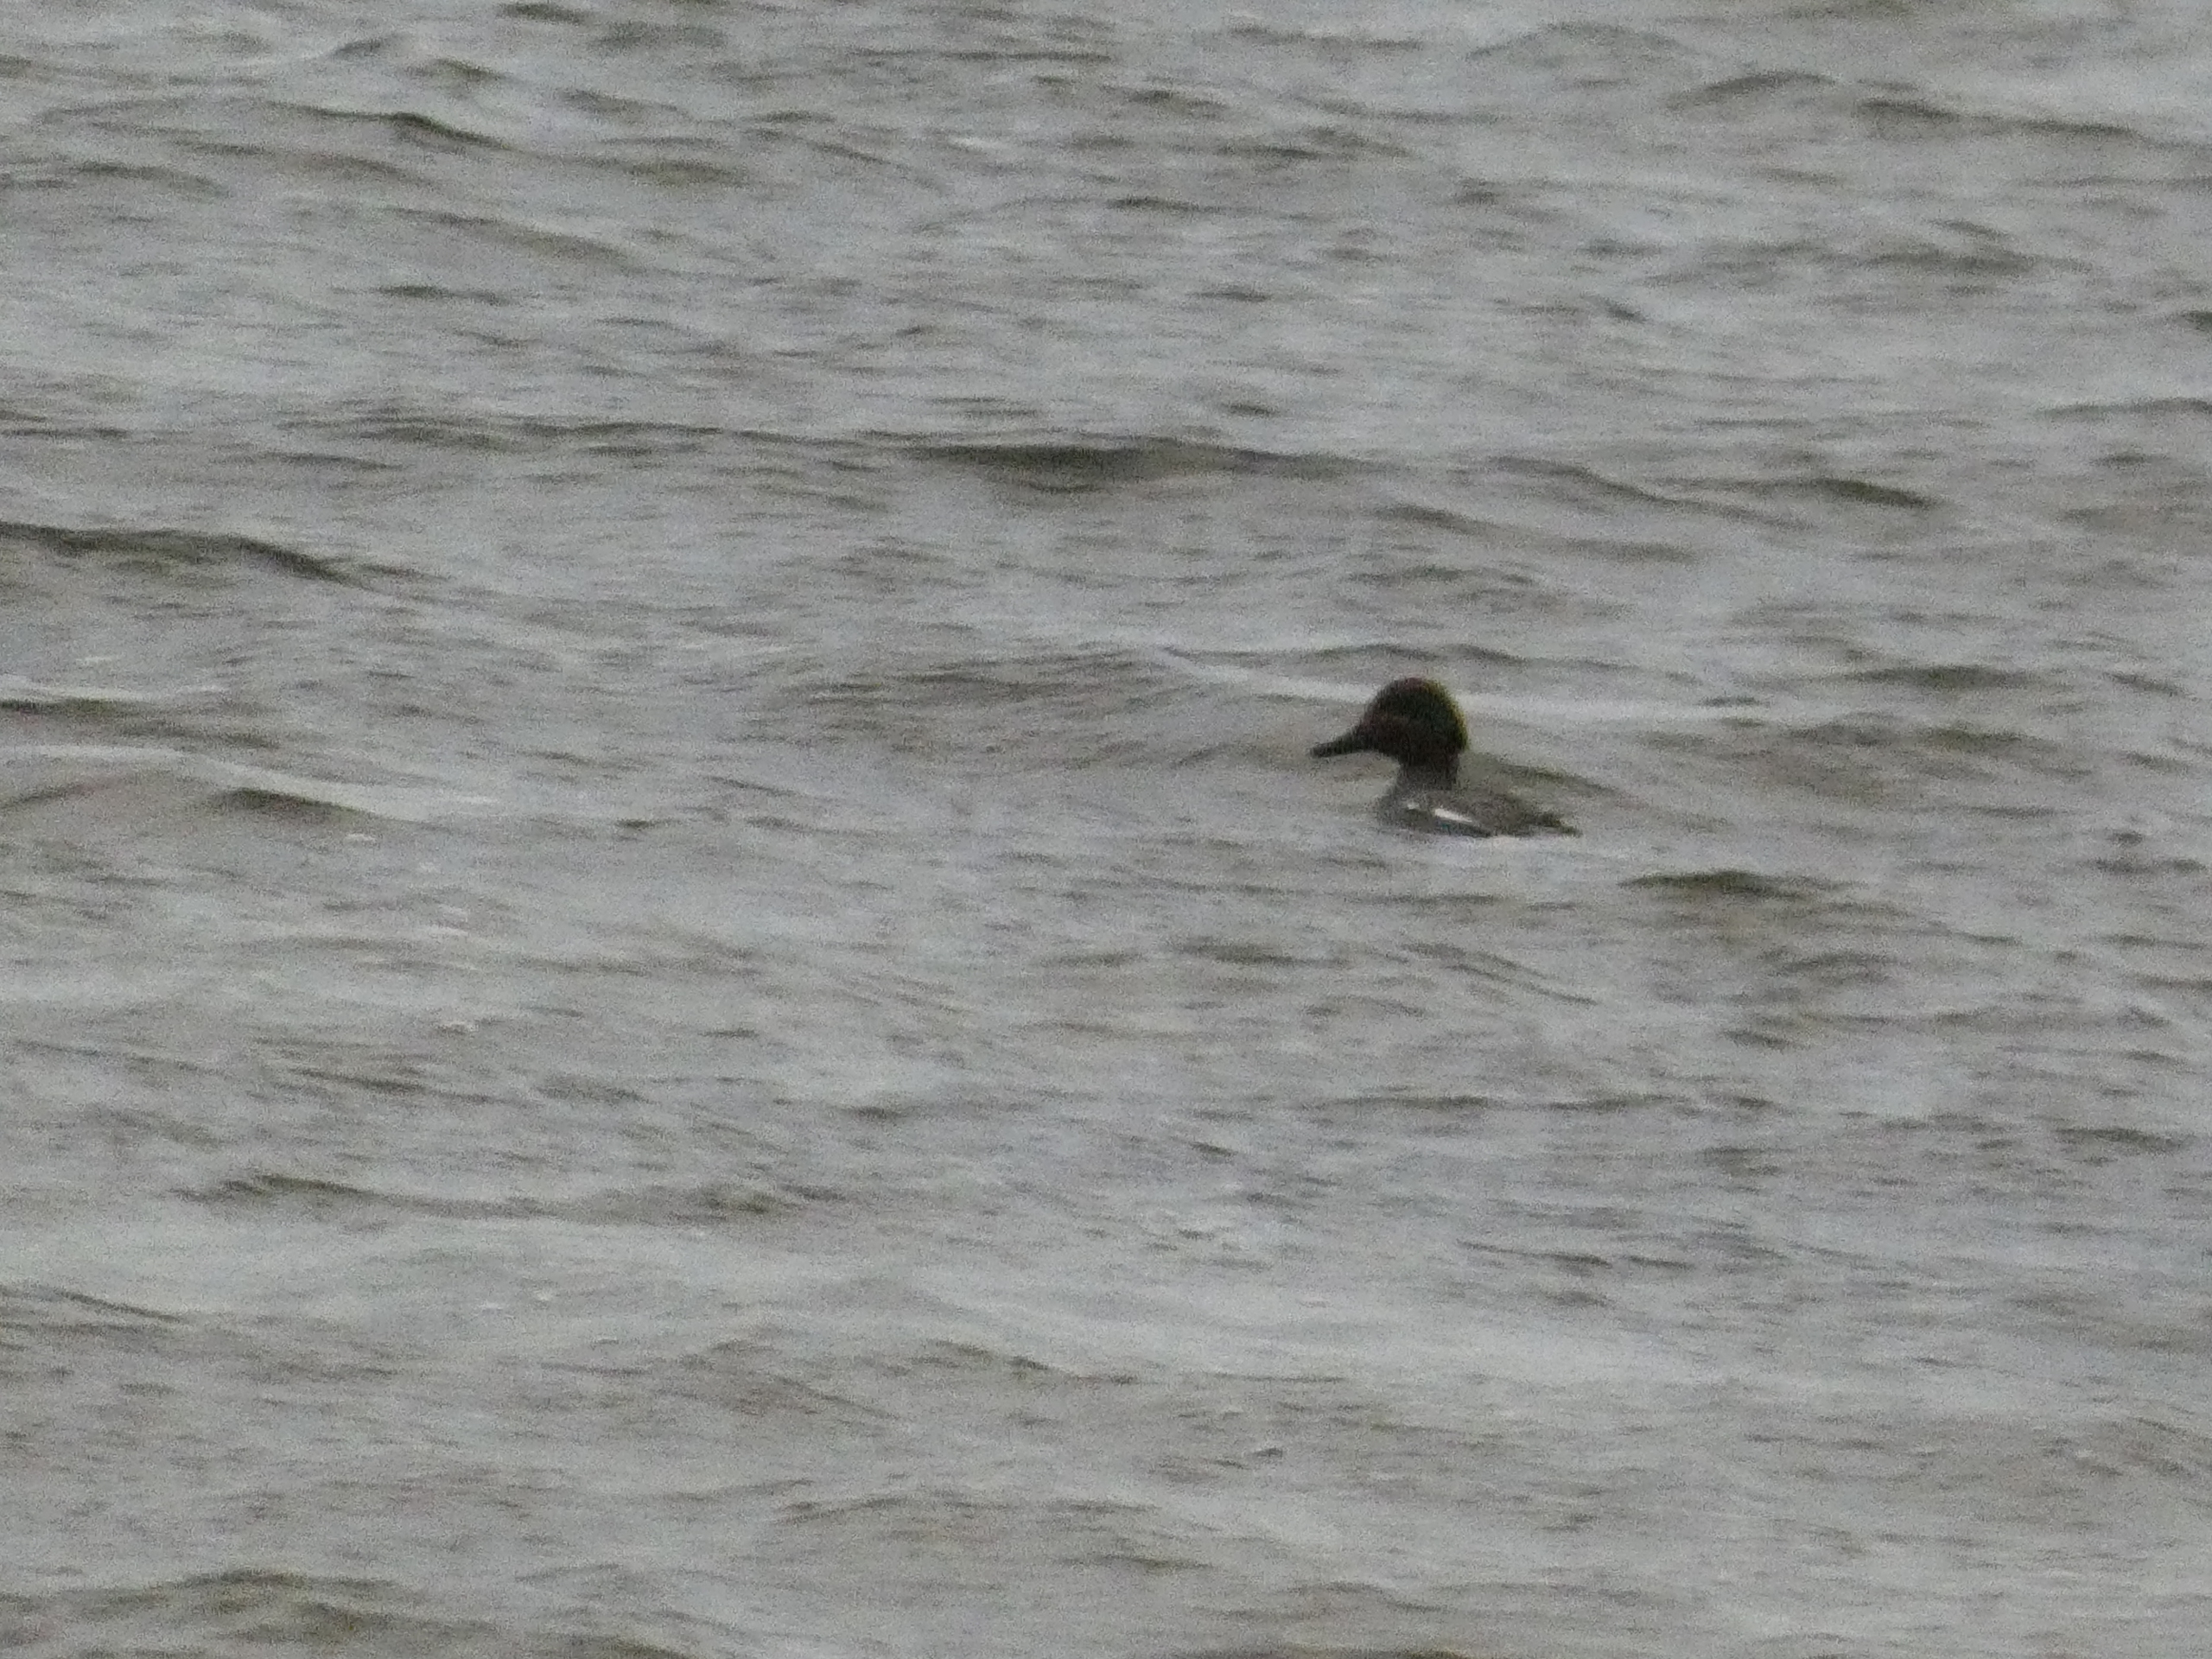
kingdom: Animalia
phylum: Chordata
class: Aves
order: Anseriformes
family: Anatidae
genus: Anas
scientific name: Anas crecca
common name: Krikand
